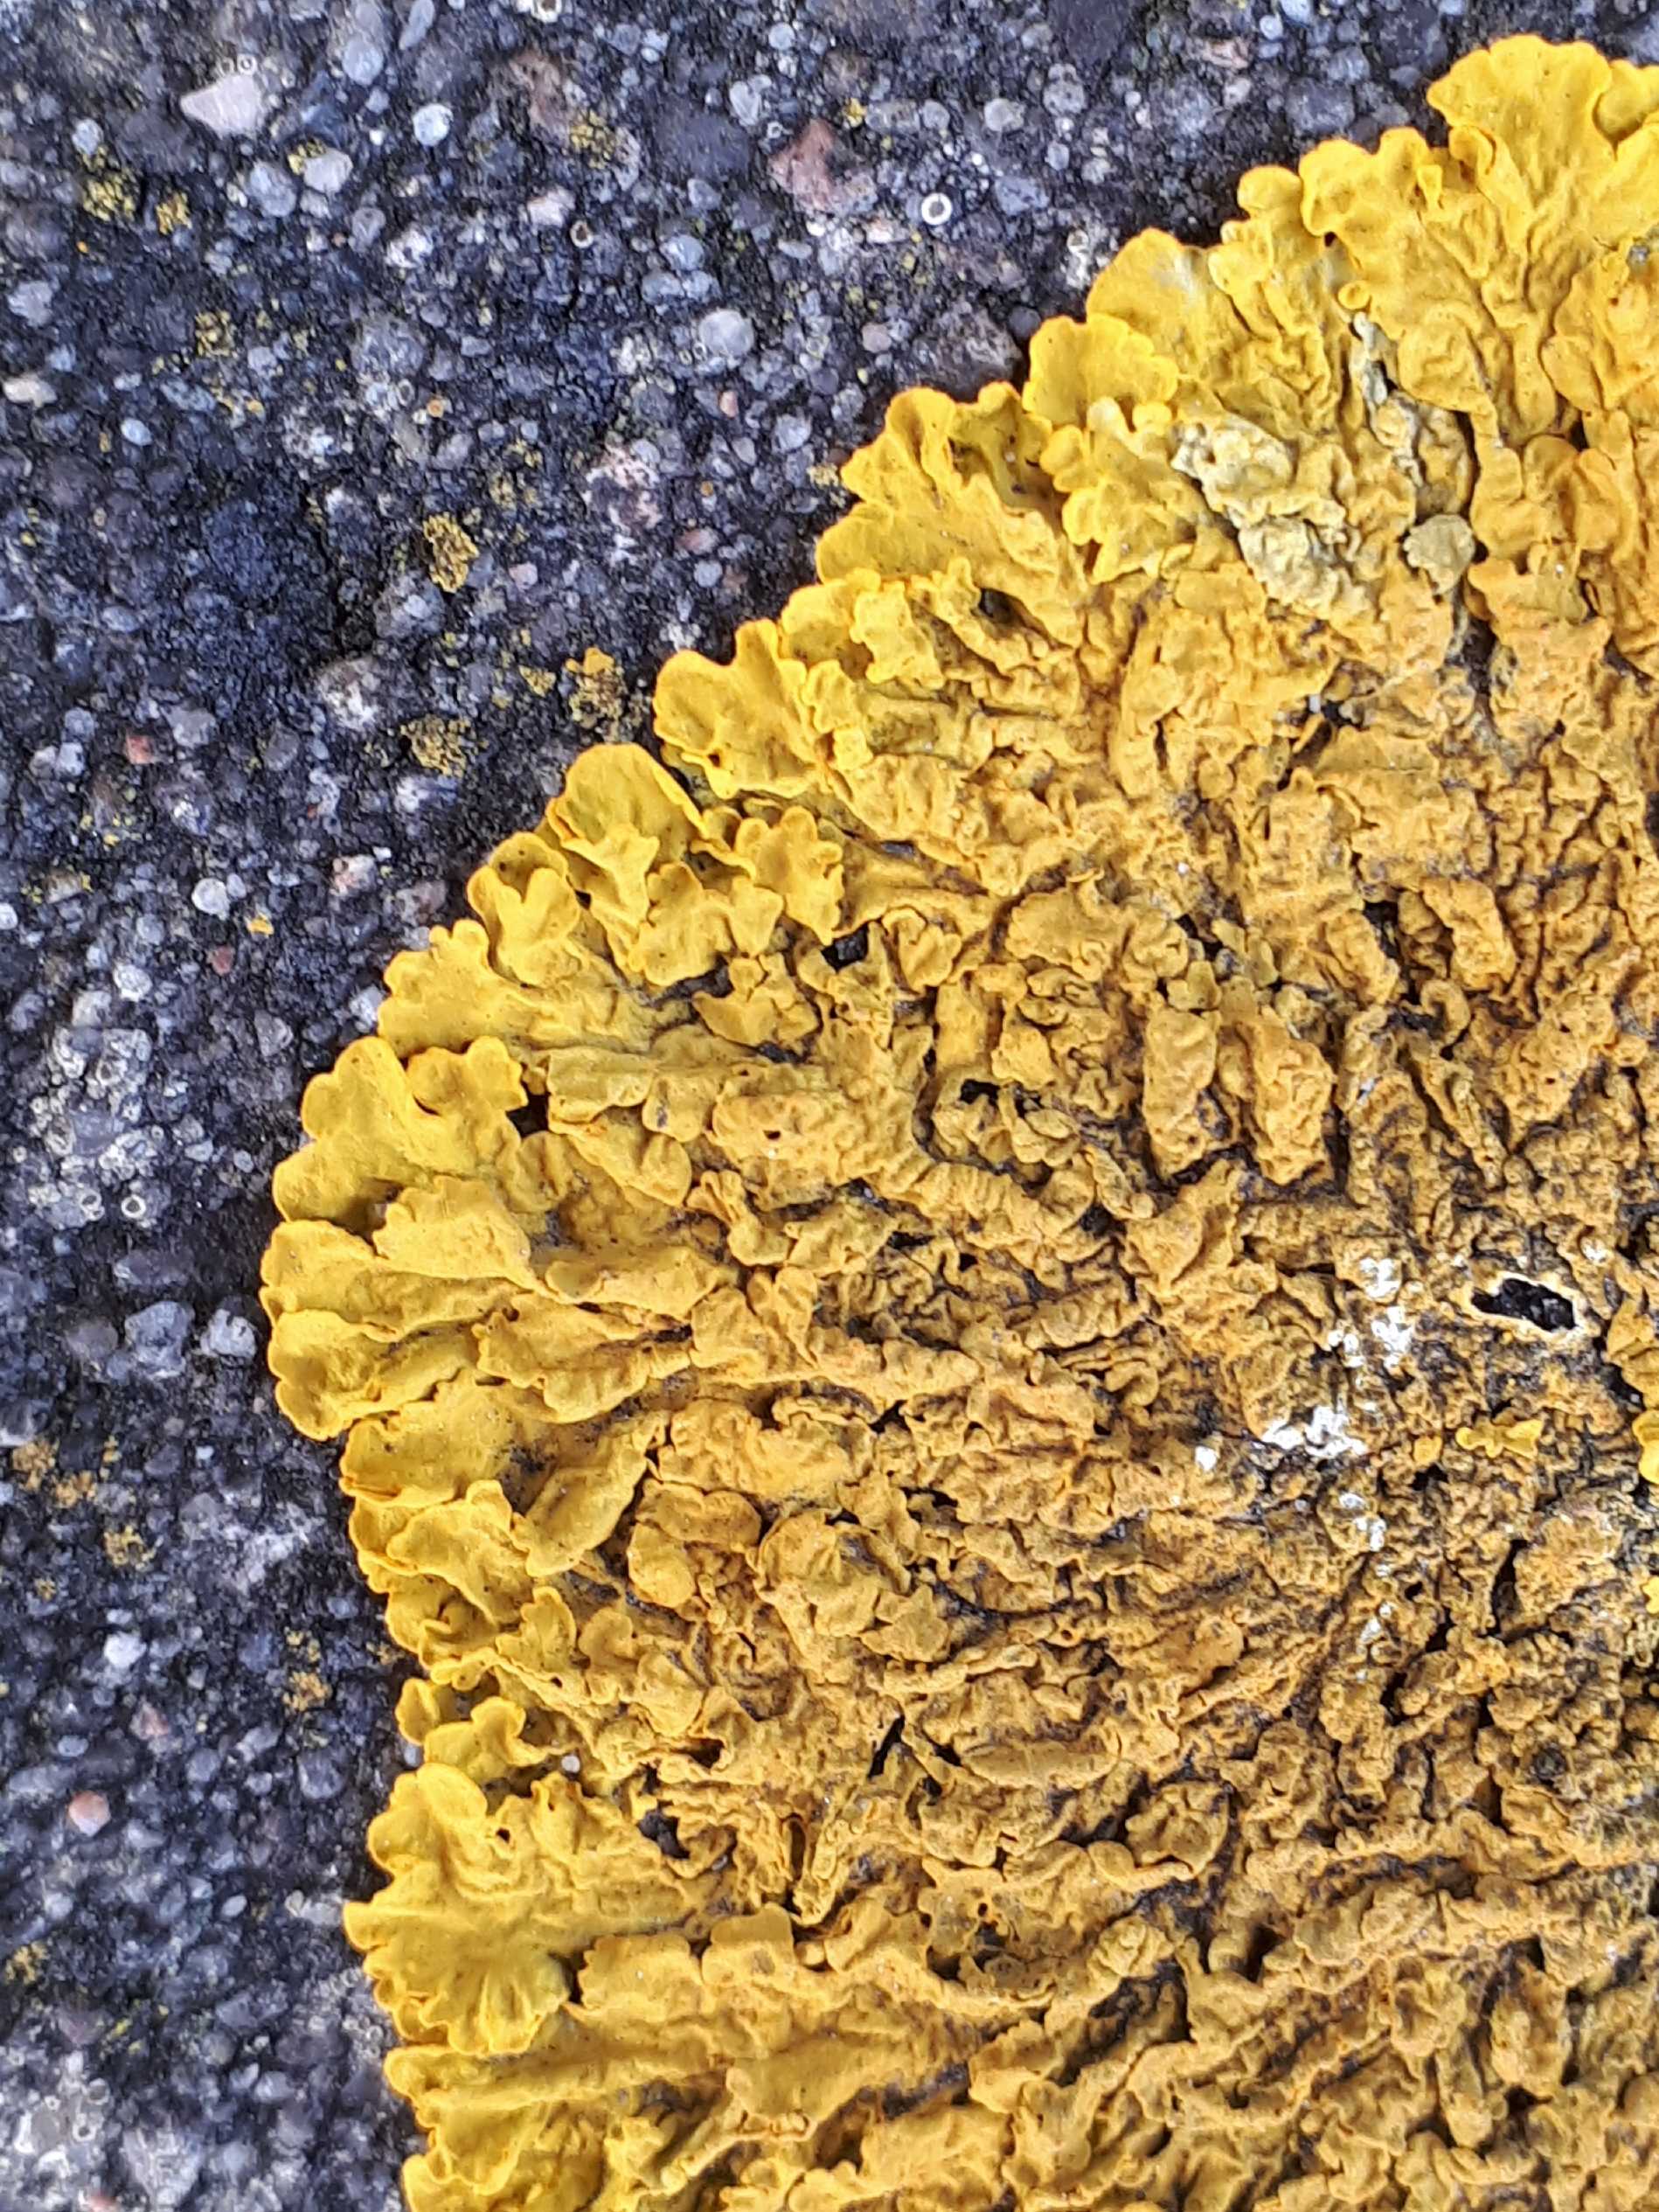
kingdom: Fungi
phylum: Ascomycota
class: Lecanoromycetes
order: Teloschistales
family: Teloschistaceae
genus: Xanthoria
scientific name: Xanthoria calcicola
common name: vortet væggelav
